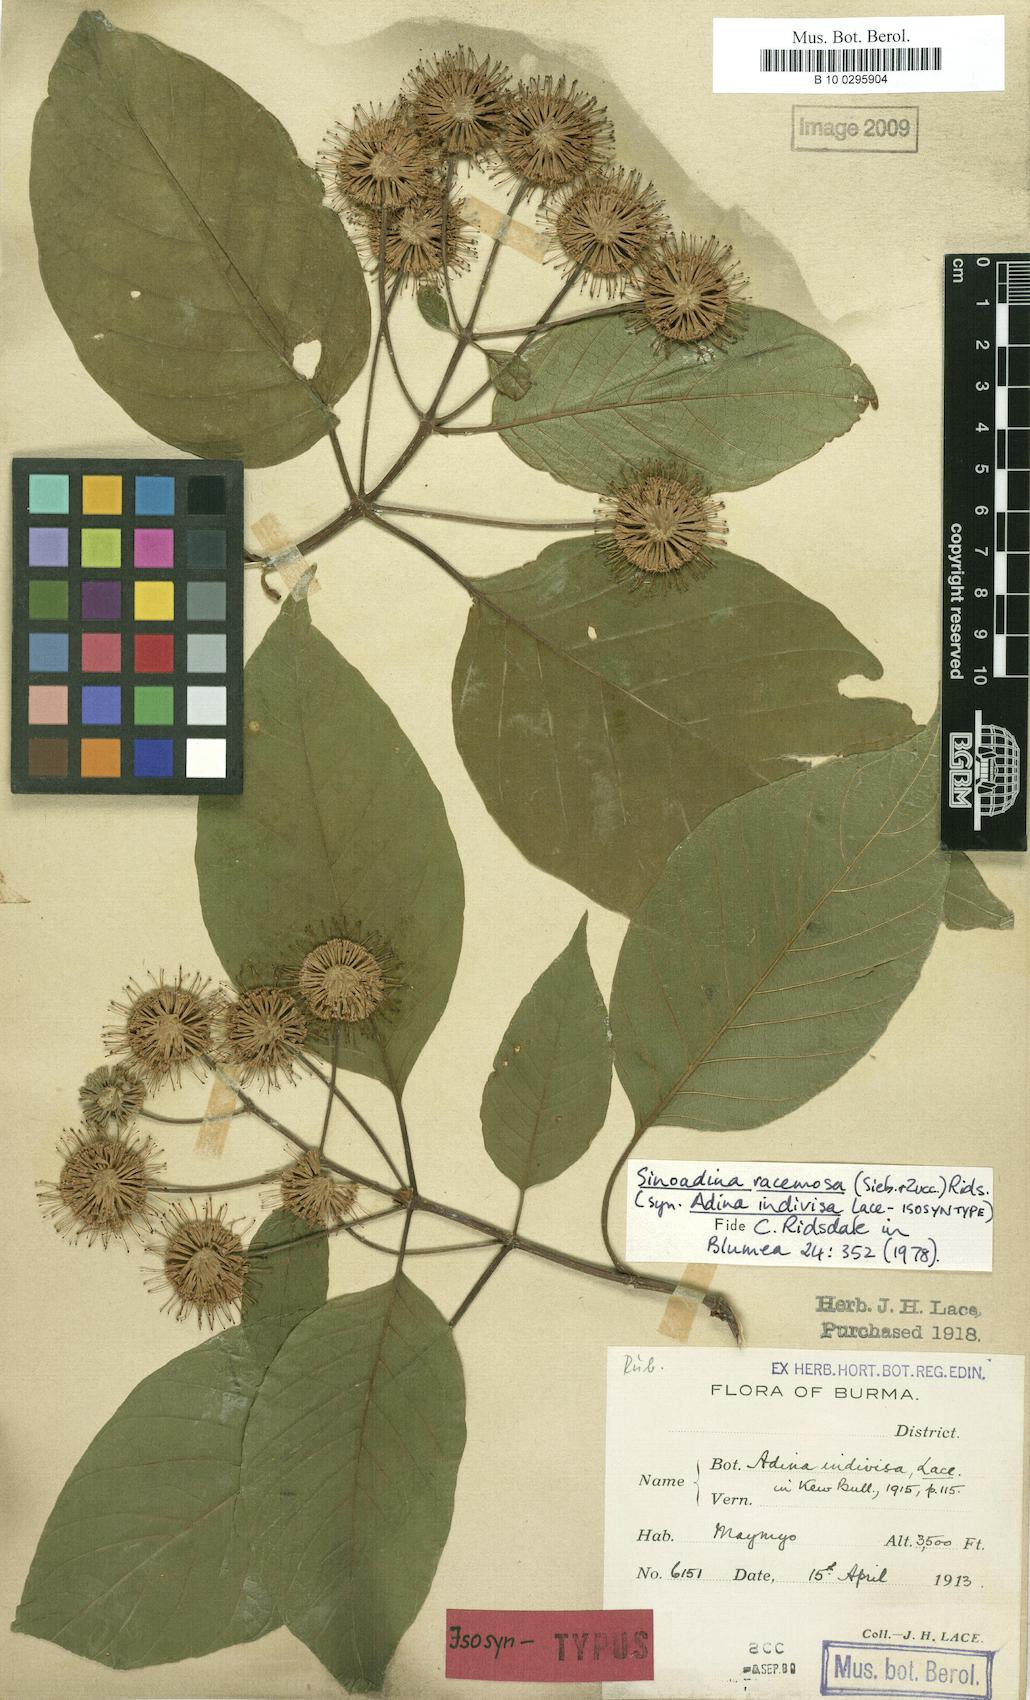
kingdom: Plantae
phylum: Tracheophyta
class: Magnoliopsida
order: Gentianales
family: Rubiaceae
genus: Adina
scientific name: Adina racemosa
